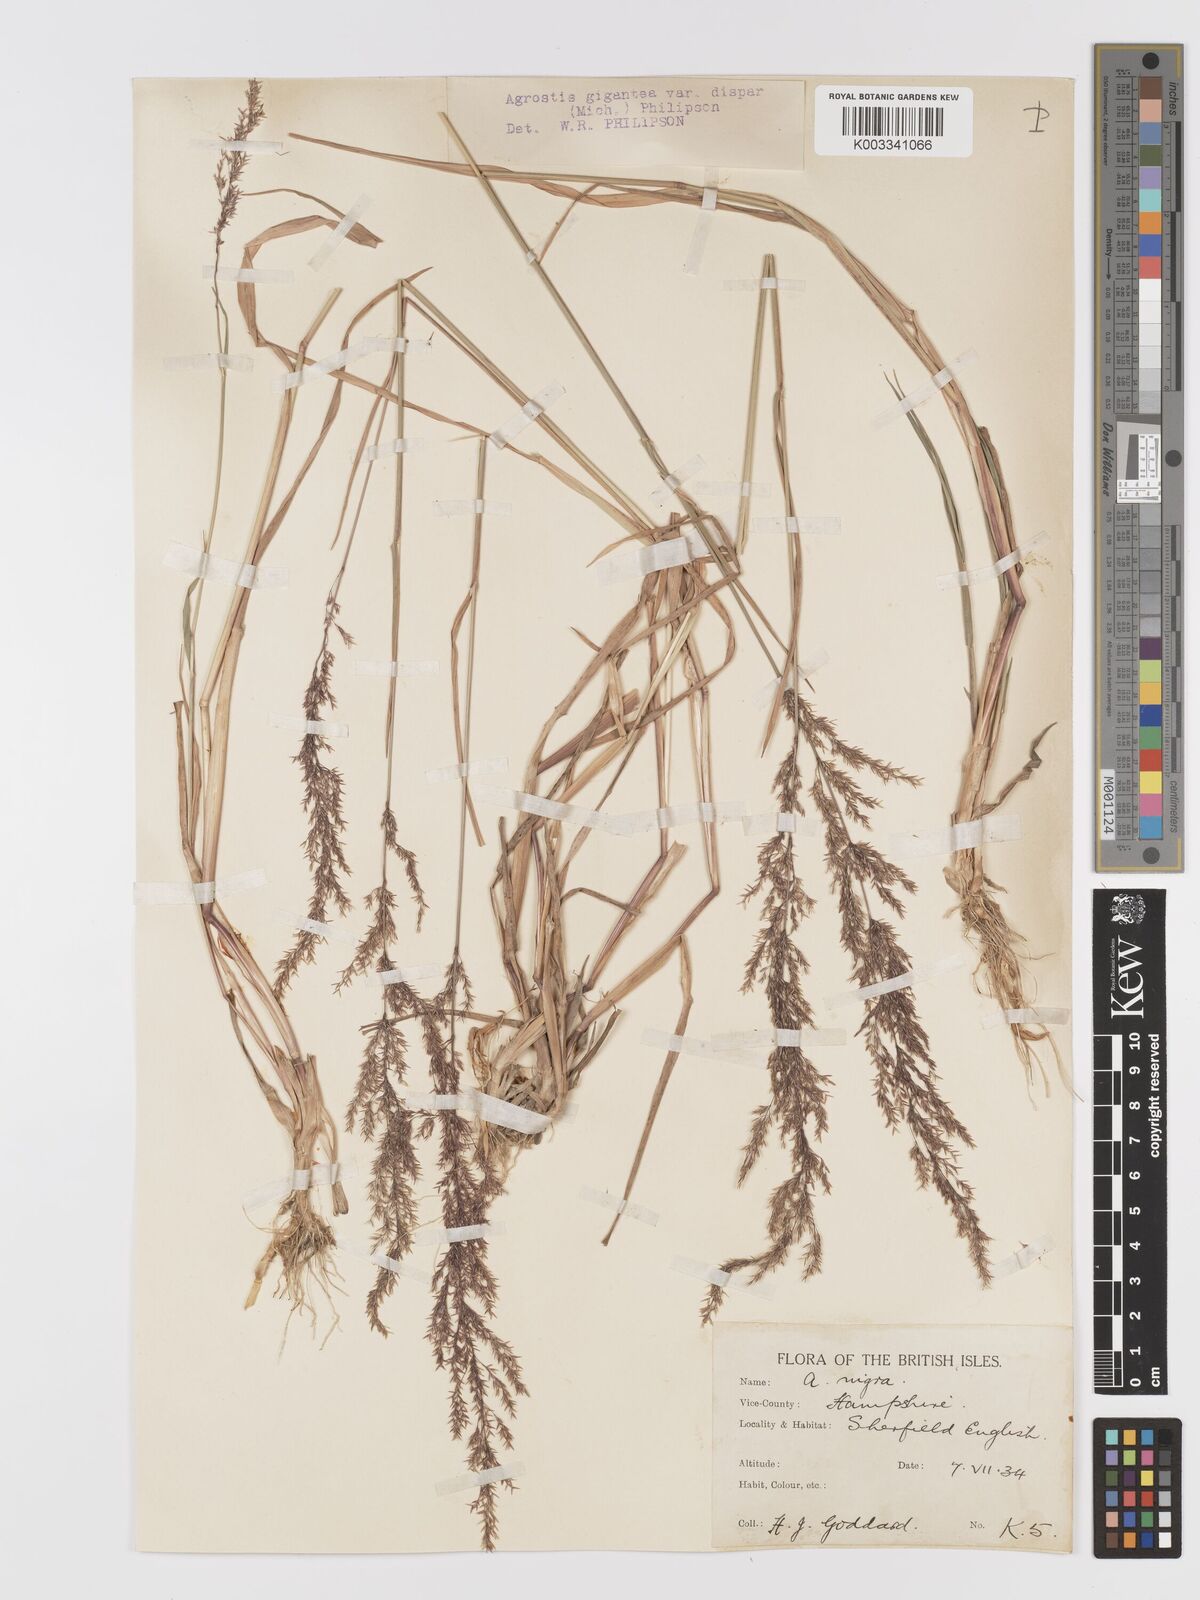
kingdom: Plantae
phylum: Tracheophyta
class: Liliopsida
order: Poales
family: Poaceae
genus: Agrostis
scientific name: Agrostis gigantea
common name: Black bent
